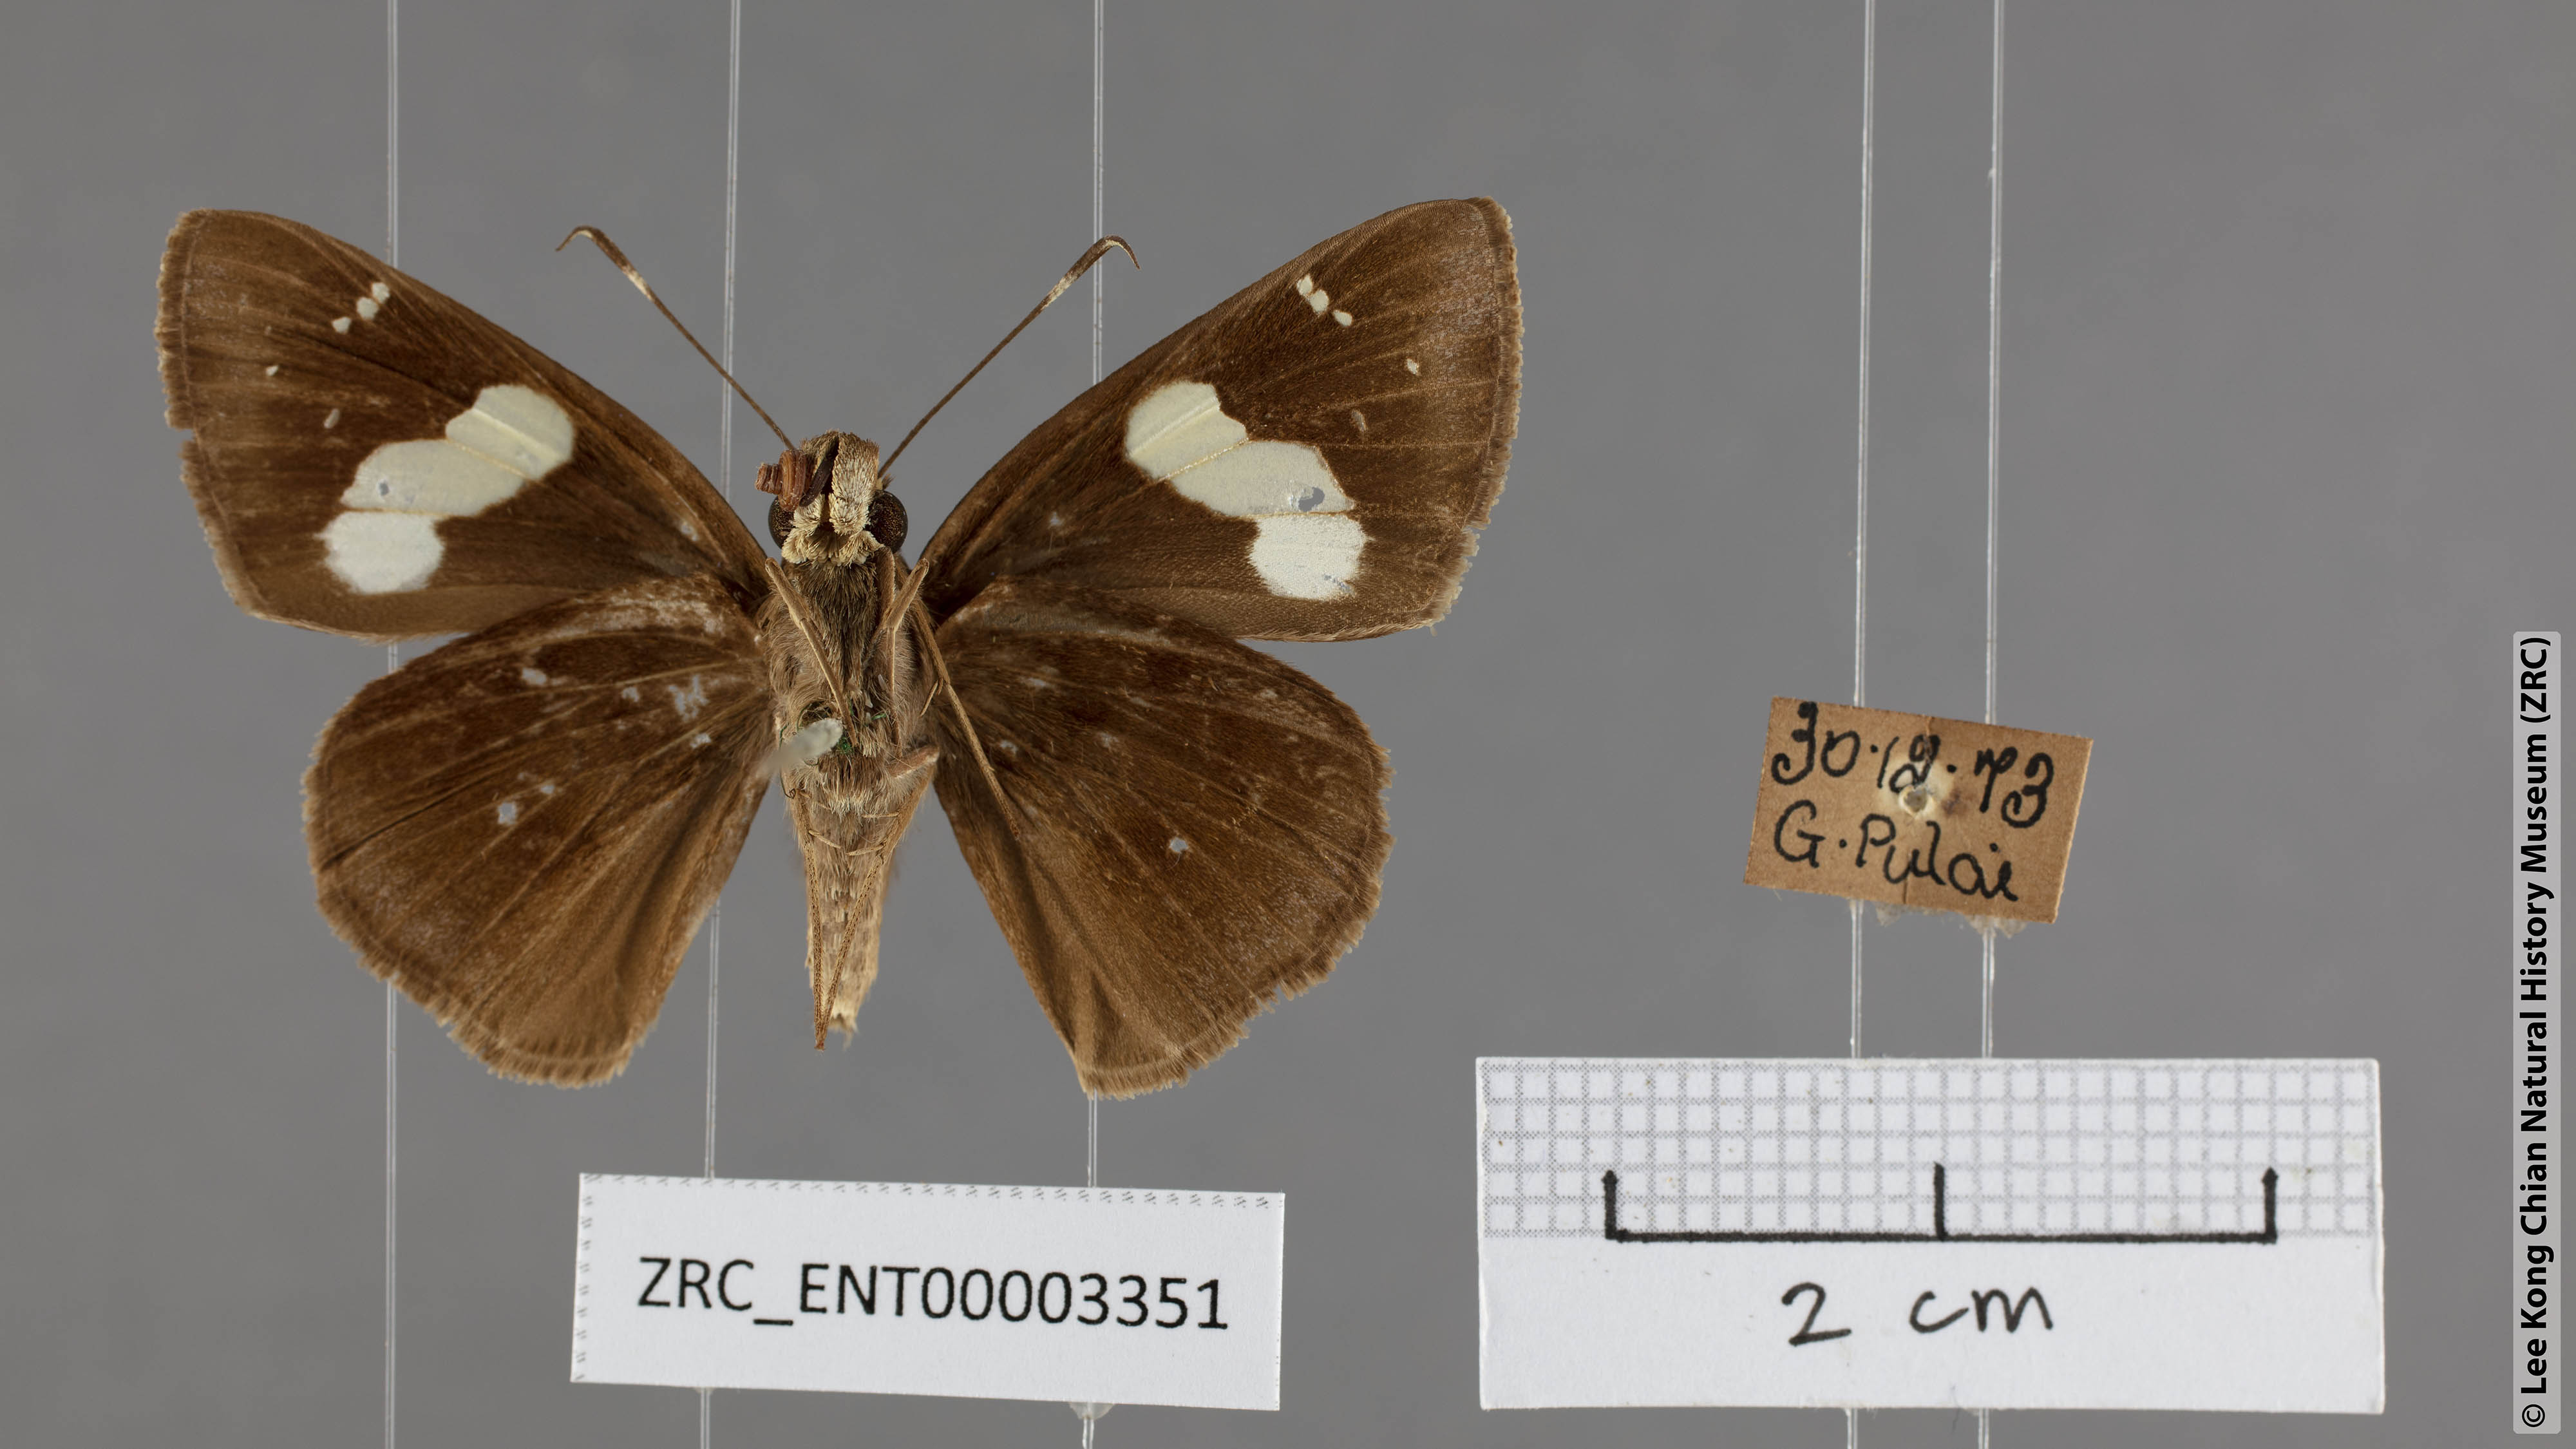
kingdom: Animalia
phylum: Arthropoda
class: Insecta
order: Lepidoptera
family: Hesperiidae
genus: Notocrypta
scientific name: Notocrypta curvifascia
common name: Restricted demon
